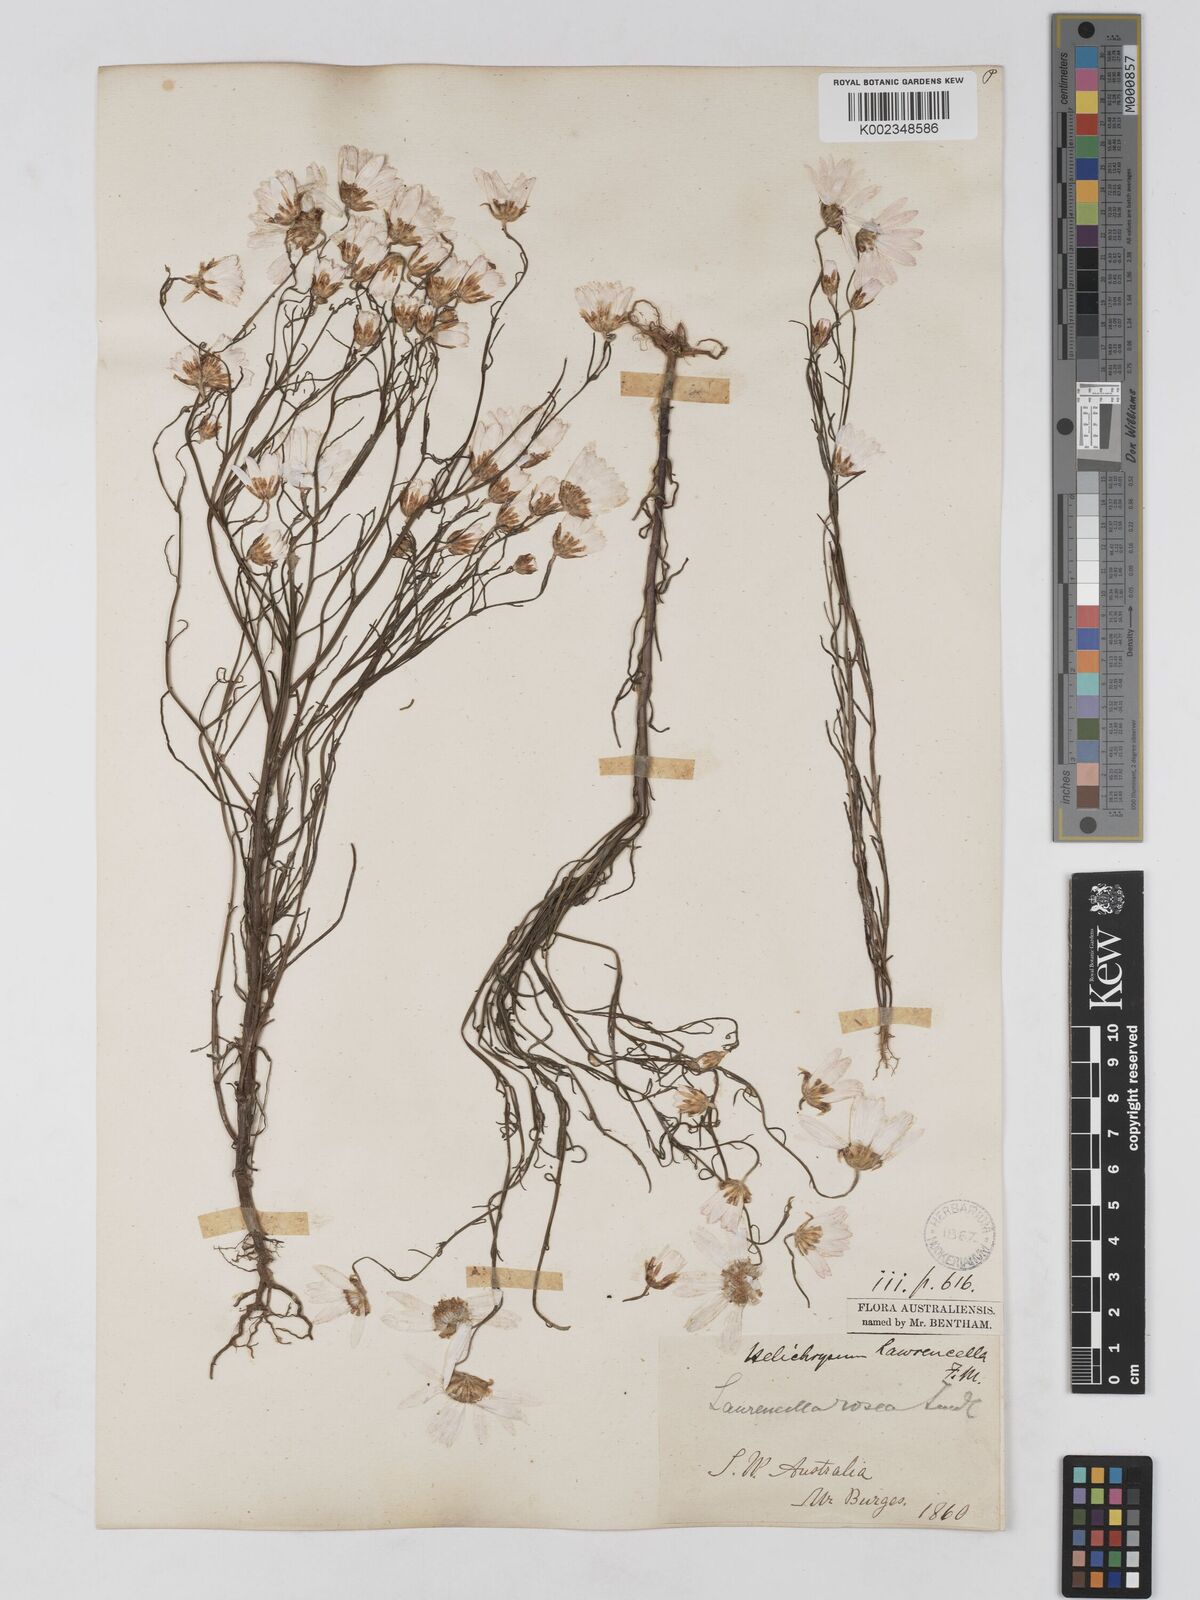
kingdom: Plantae
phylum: Tracheophyta
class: Magnoliopsida
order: Asterales
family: Asteraceae
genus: Lawrencella
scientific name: Lawrencella rosea
